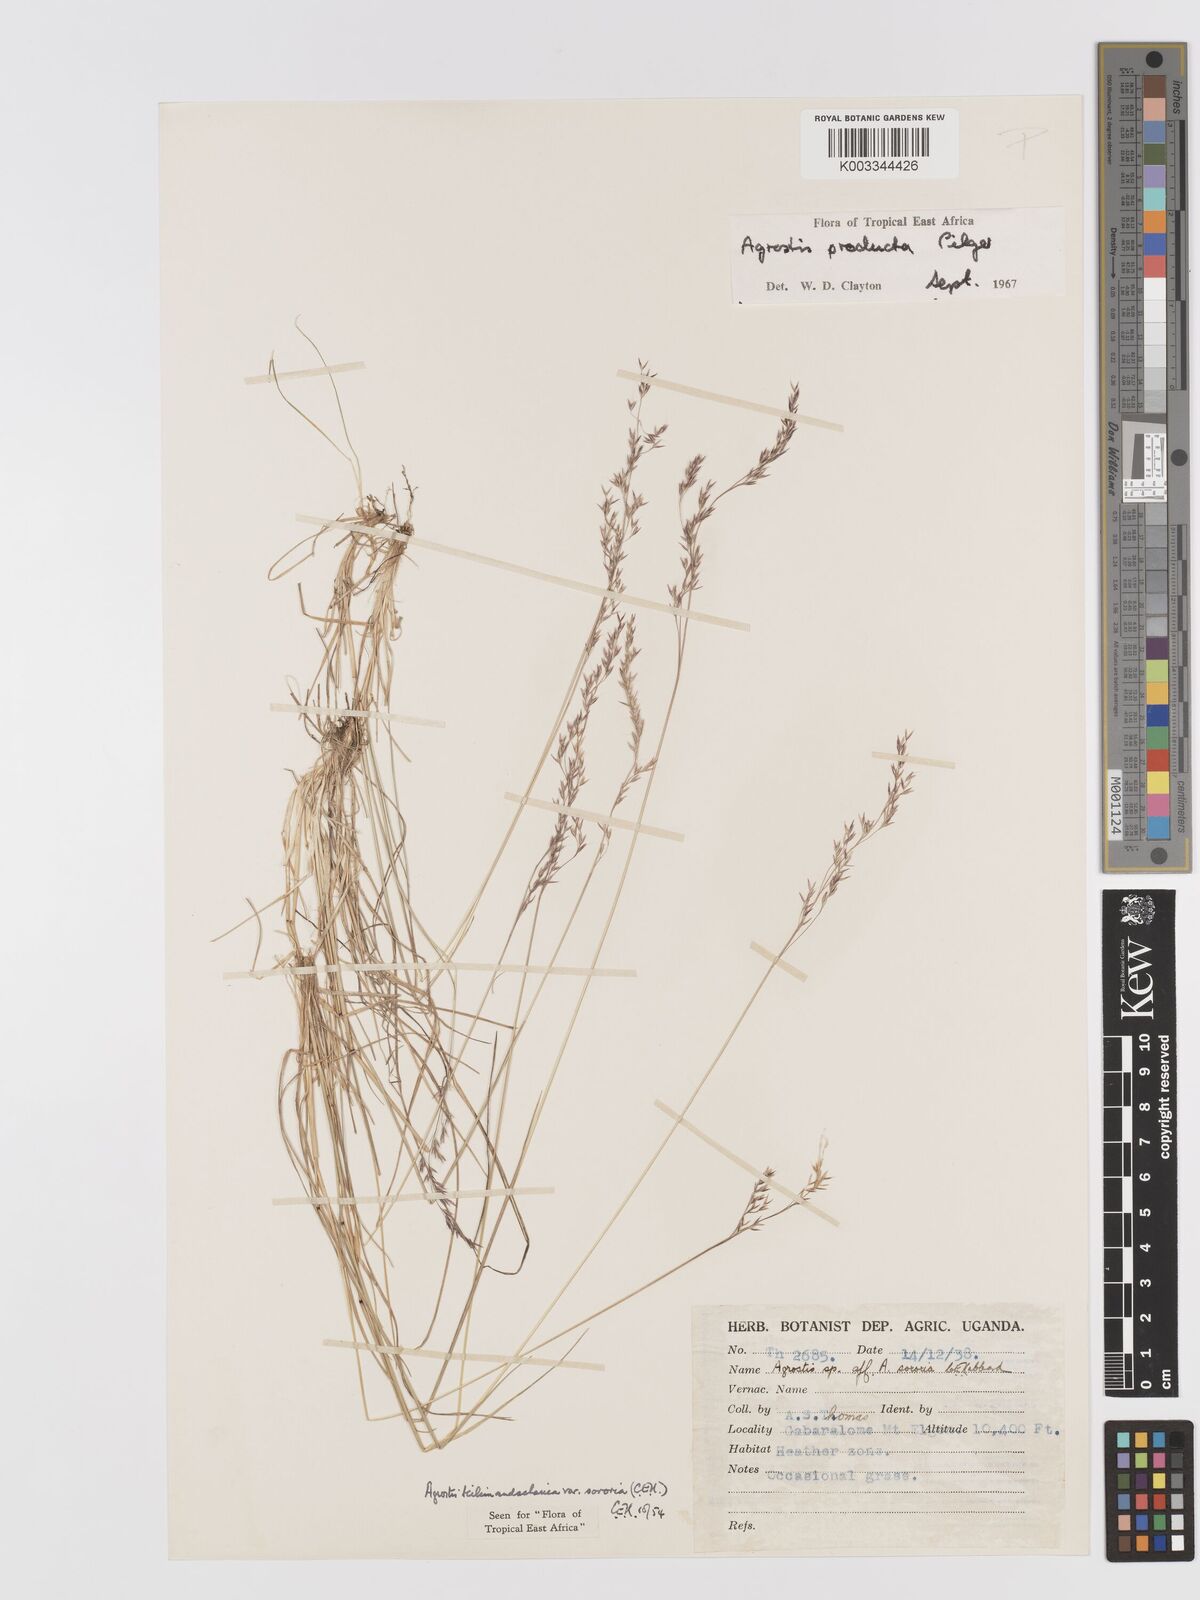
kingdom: Plantae
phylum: Tracheophyta
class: Liliopsida
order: Poales
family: Poaceae
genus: Agrostis
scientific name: Agrostis producta
